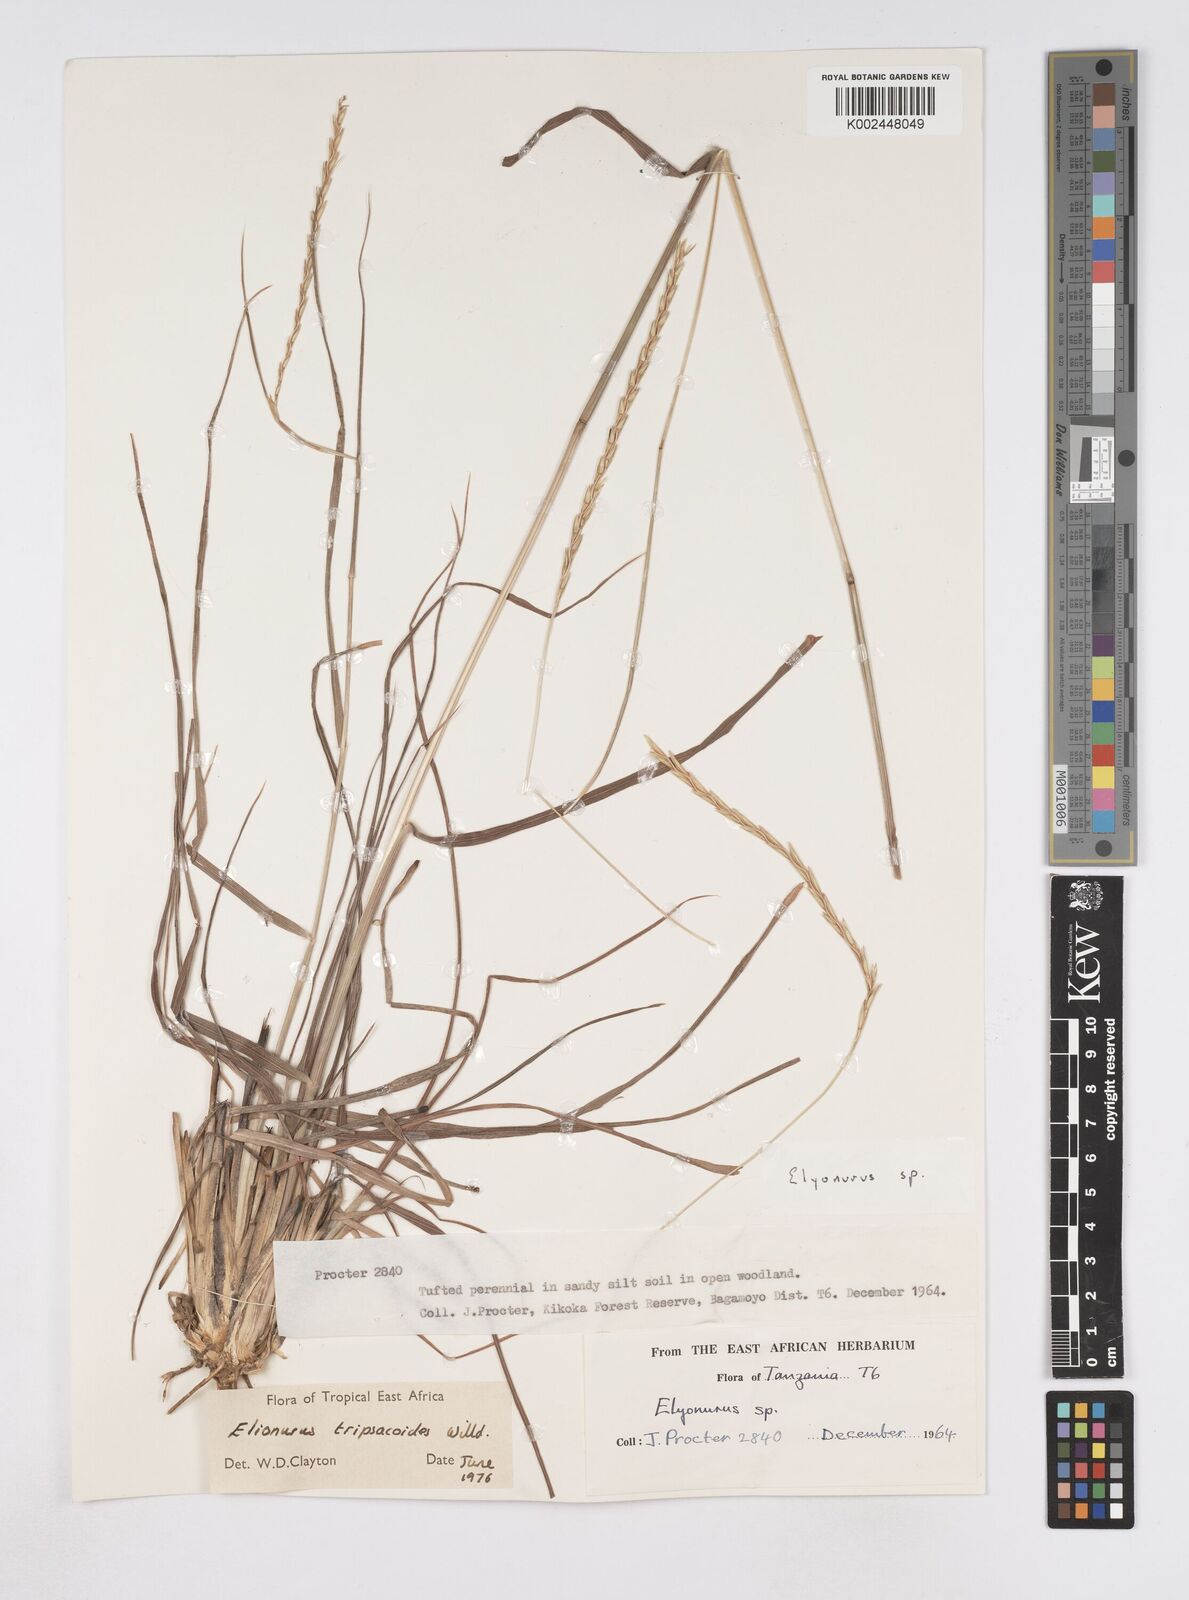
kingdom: Plantae
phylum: Tracheophyta
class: Liliopsida
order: Poales
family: Poaceae
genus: Elionurus
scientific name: Elionurus tripsacoides
